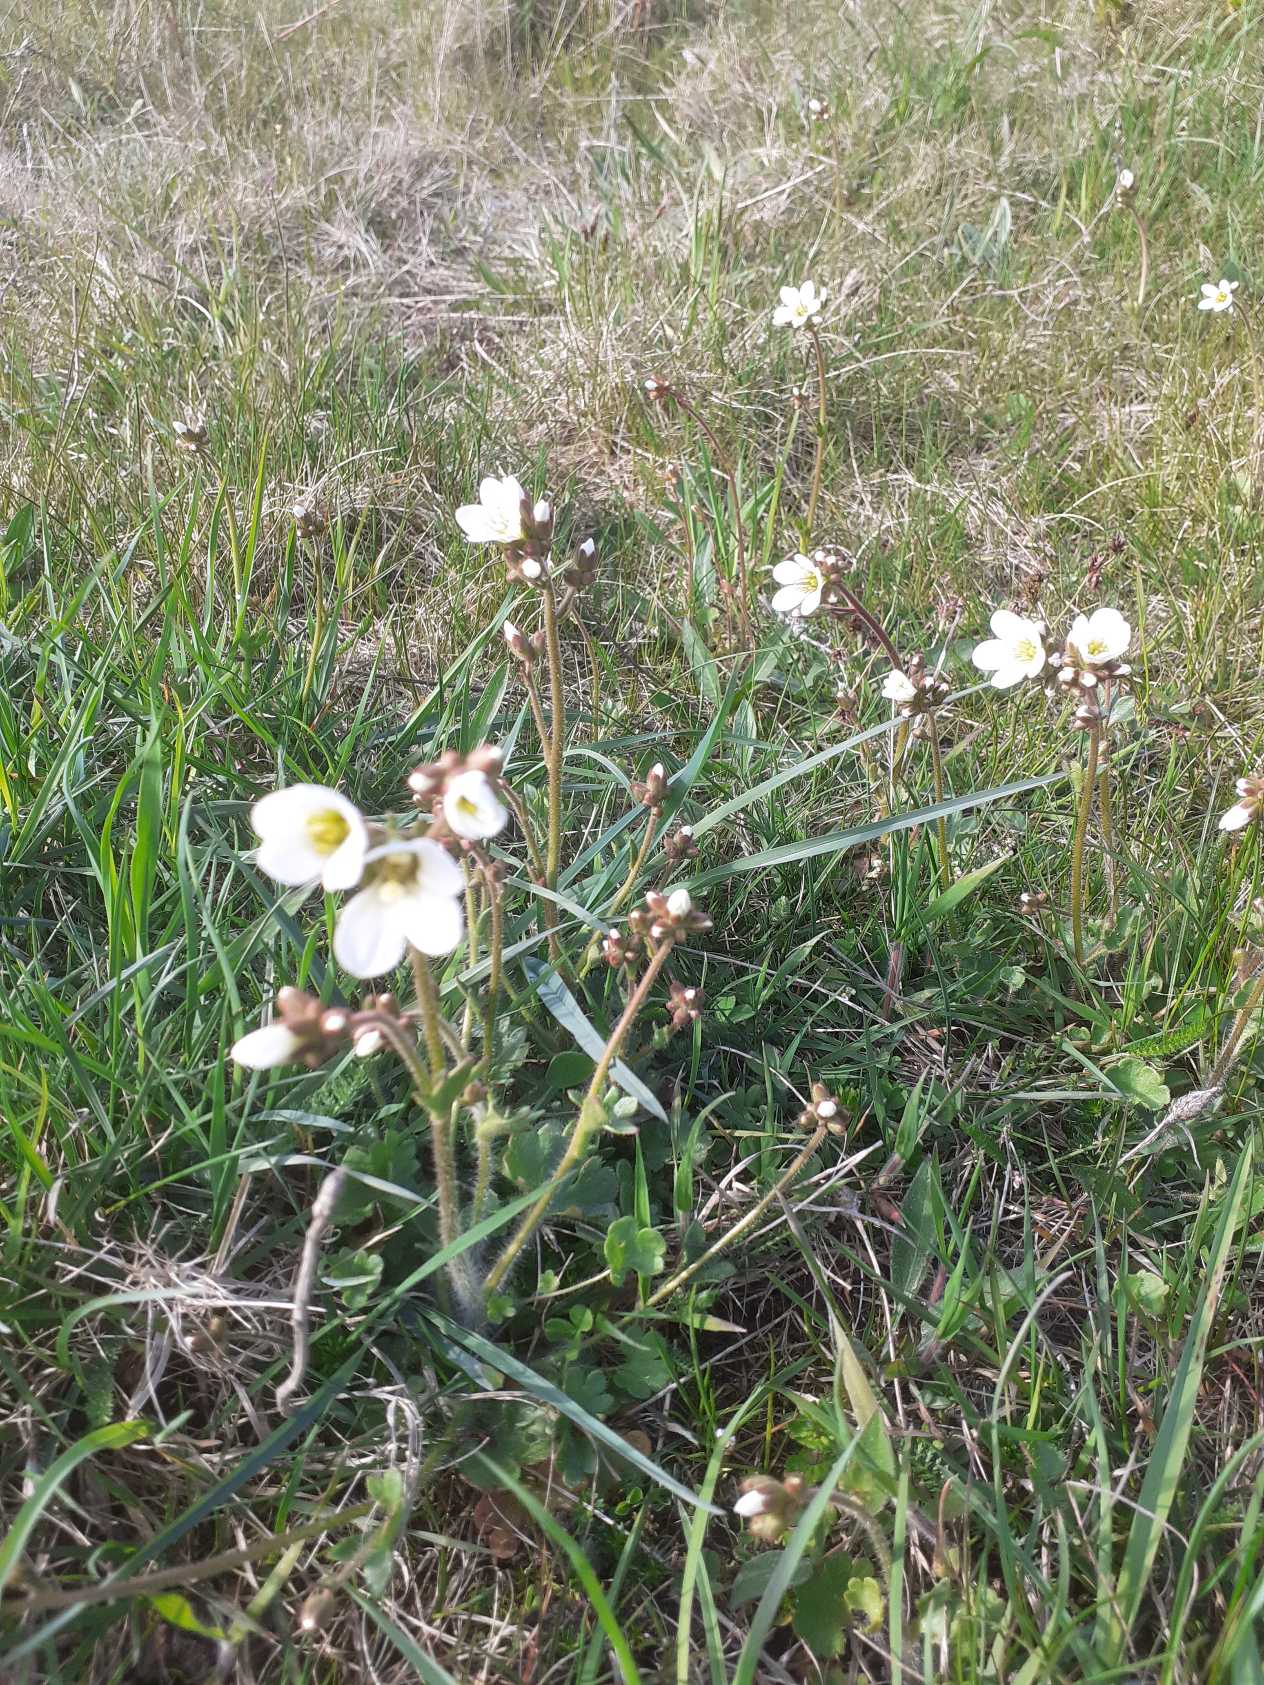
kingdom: Plantae
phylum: Tracheophyta
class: Magnoliopsida
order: Saxifragales
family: Saxifragaceae
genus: Saxifraga
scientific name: Saxifraga granulata
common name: Kornet stenbræk
